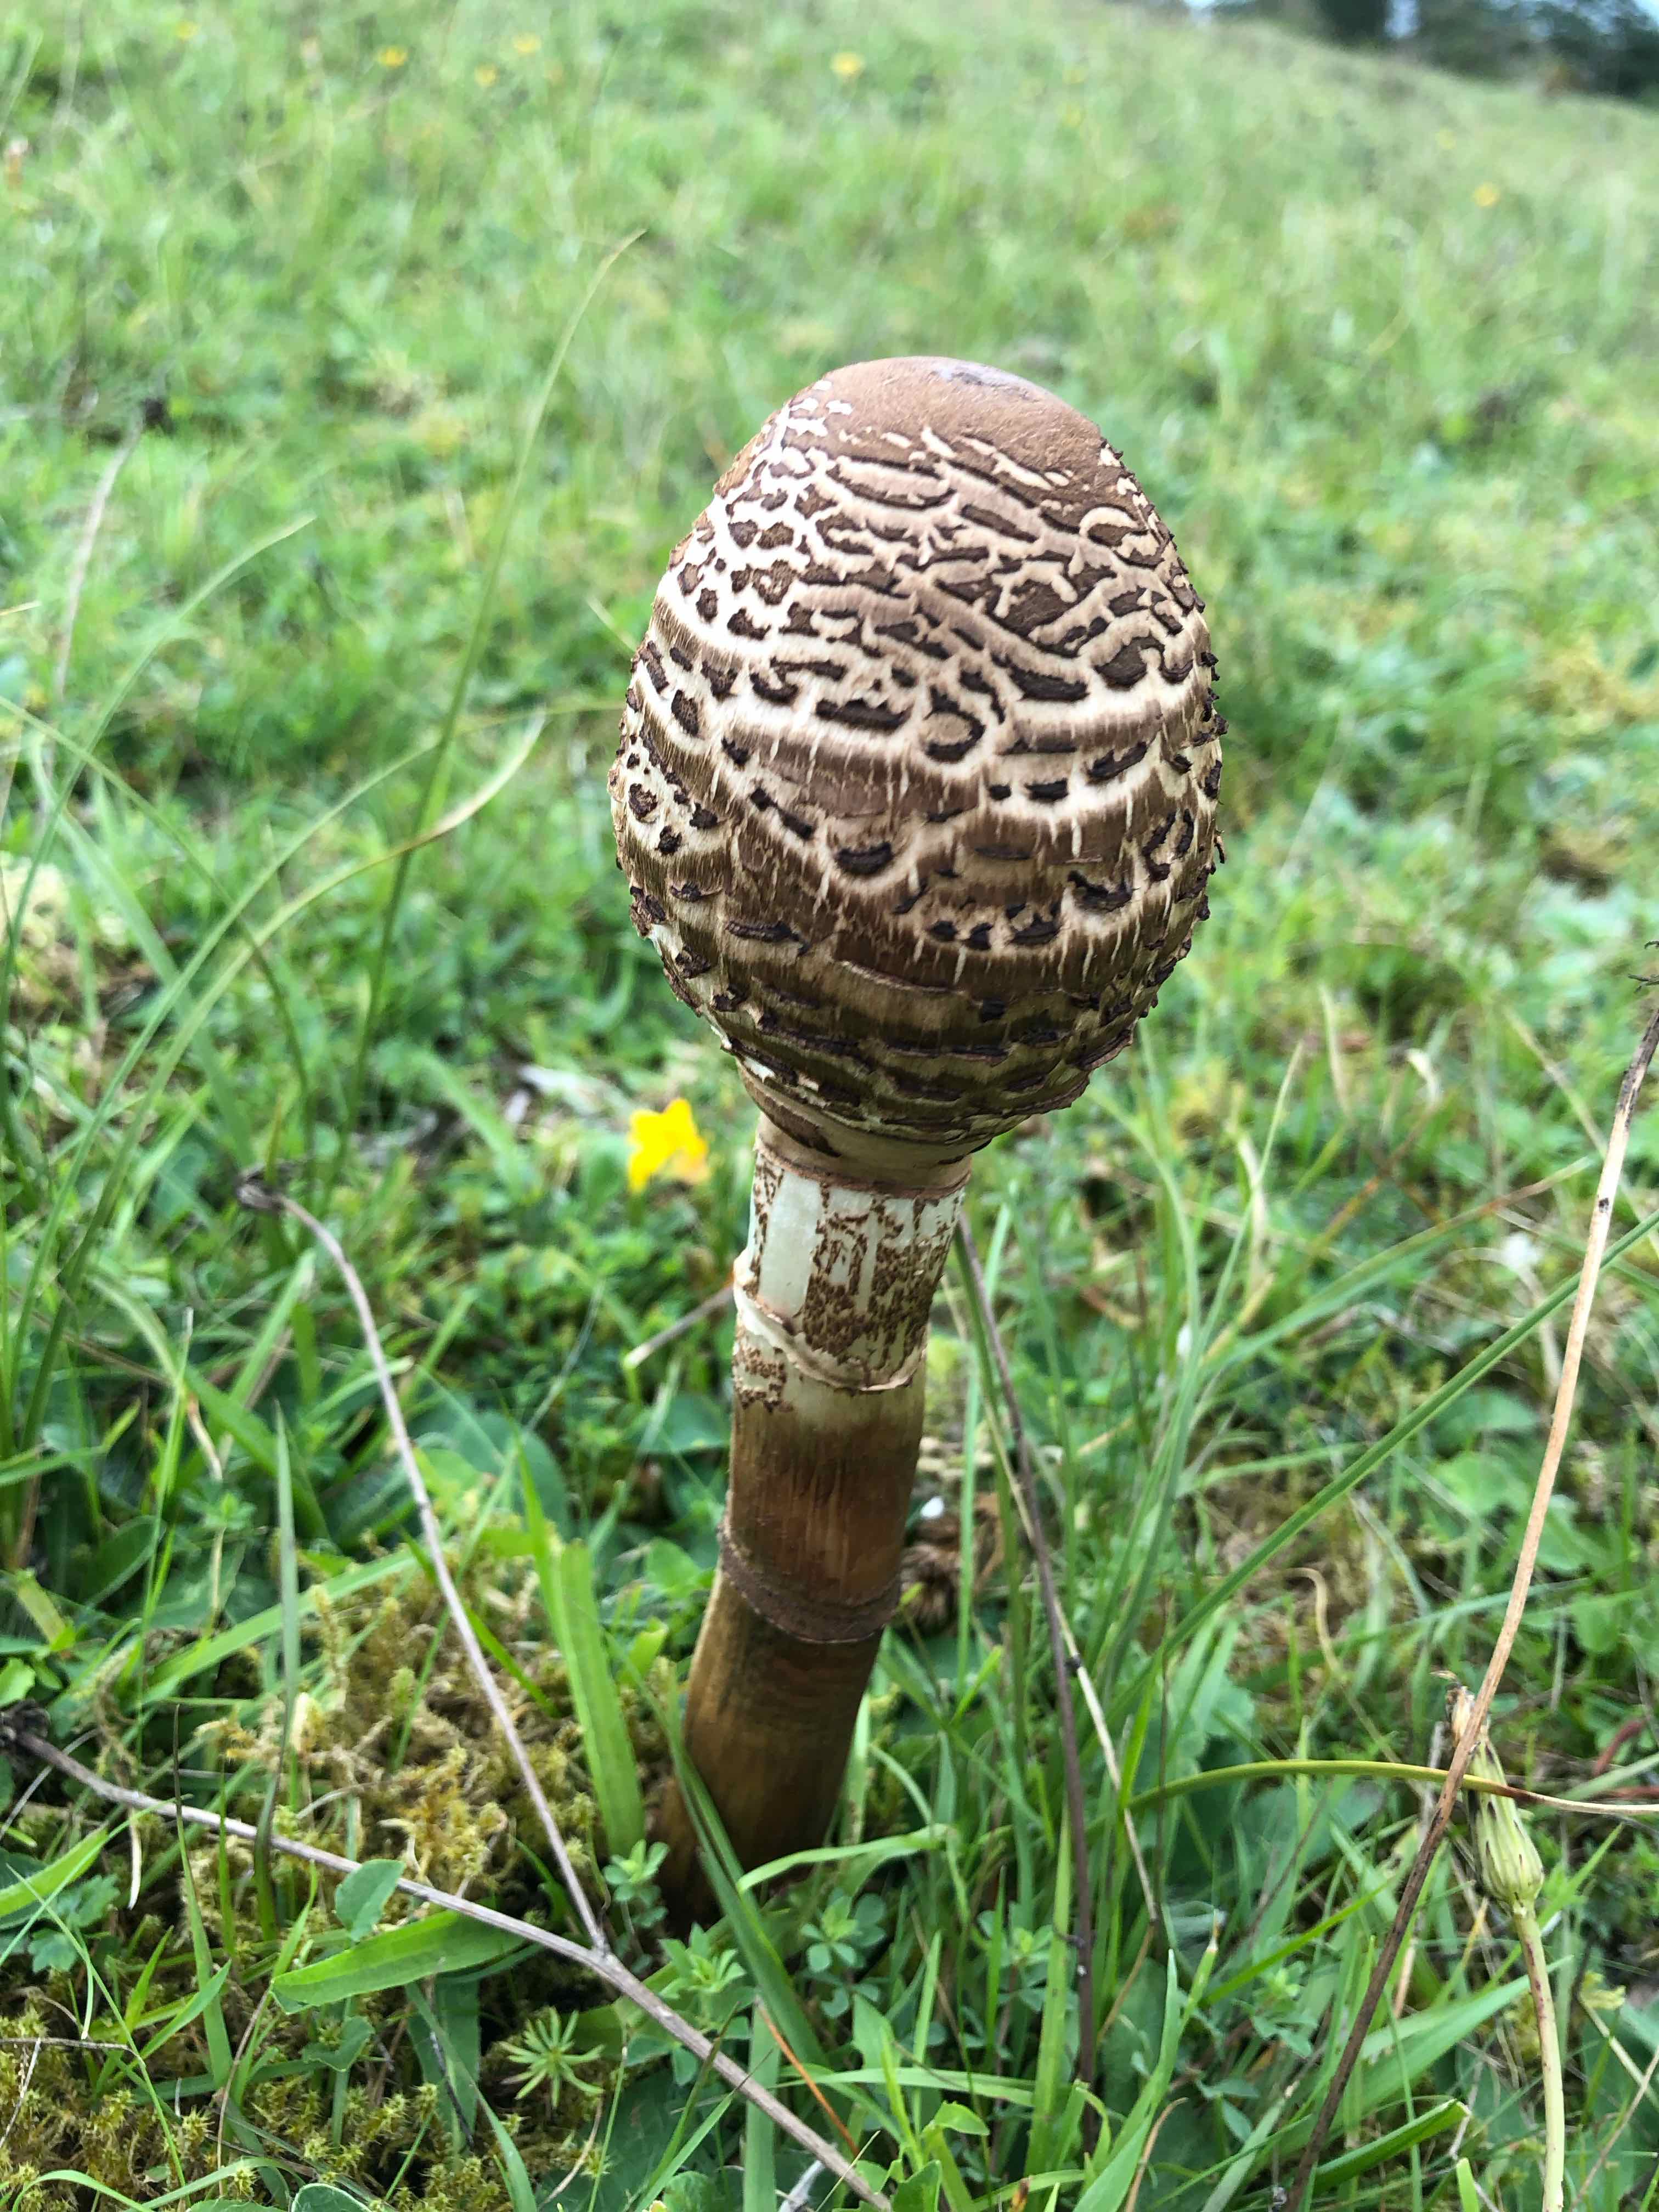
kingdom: Fungi
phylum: Basidiomycota
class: Agaricomycetes
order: Agaricales
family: Agaricaceae
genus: Macrolepiota
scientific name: Macrolepiota
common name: kæmpeparasolhat
